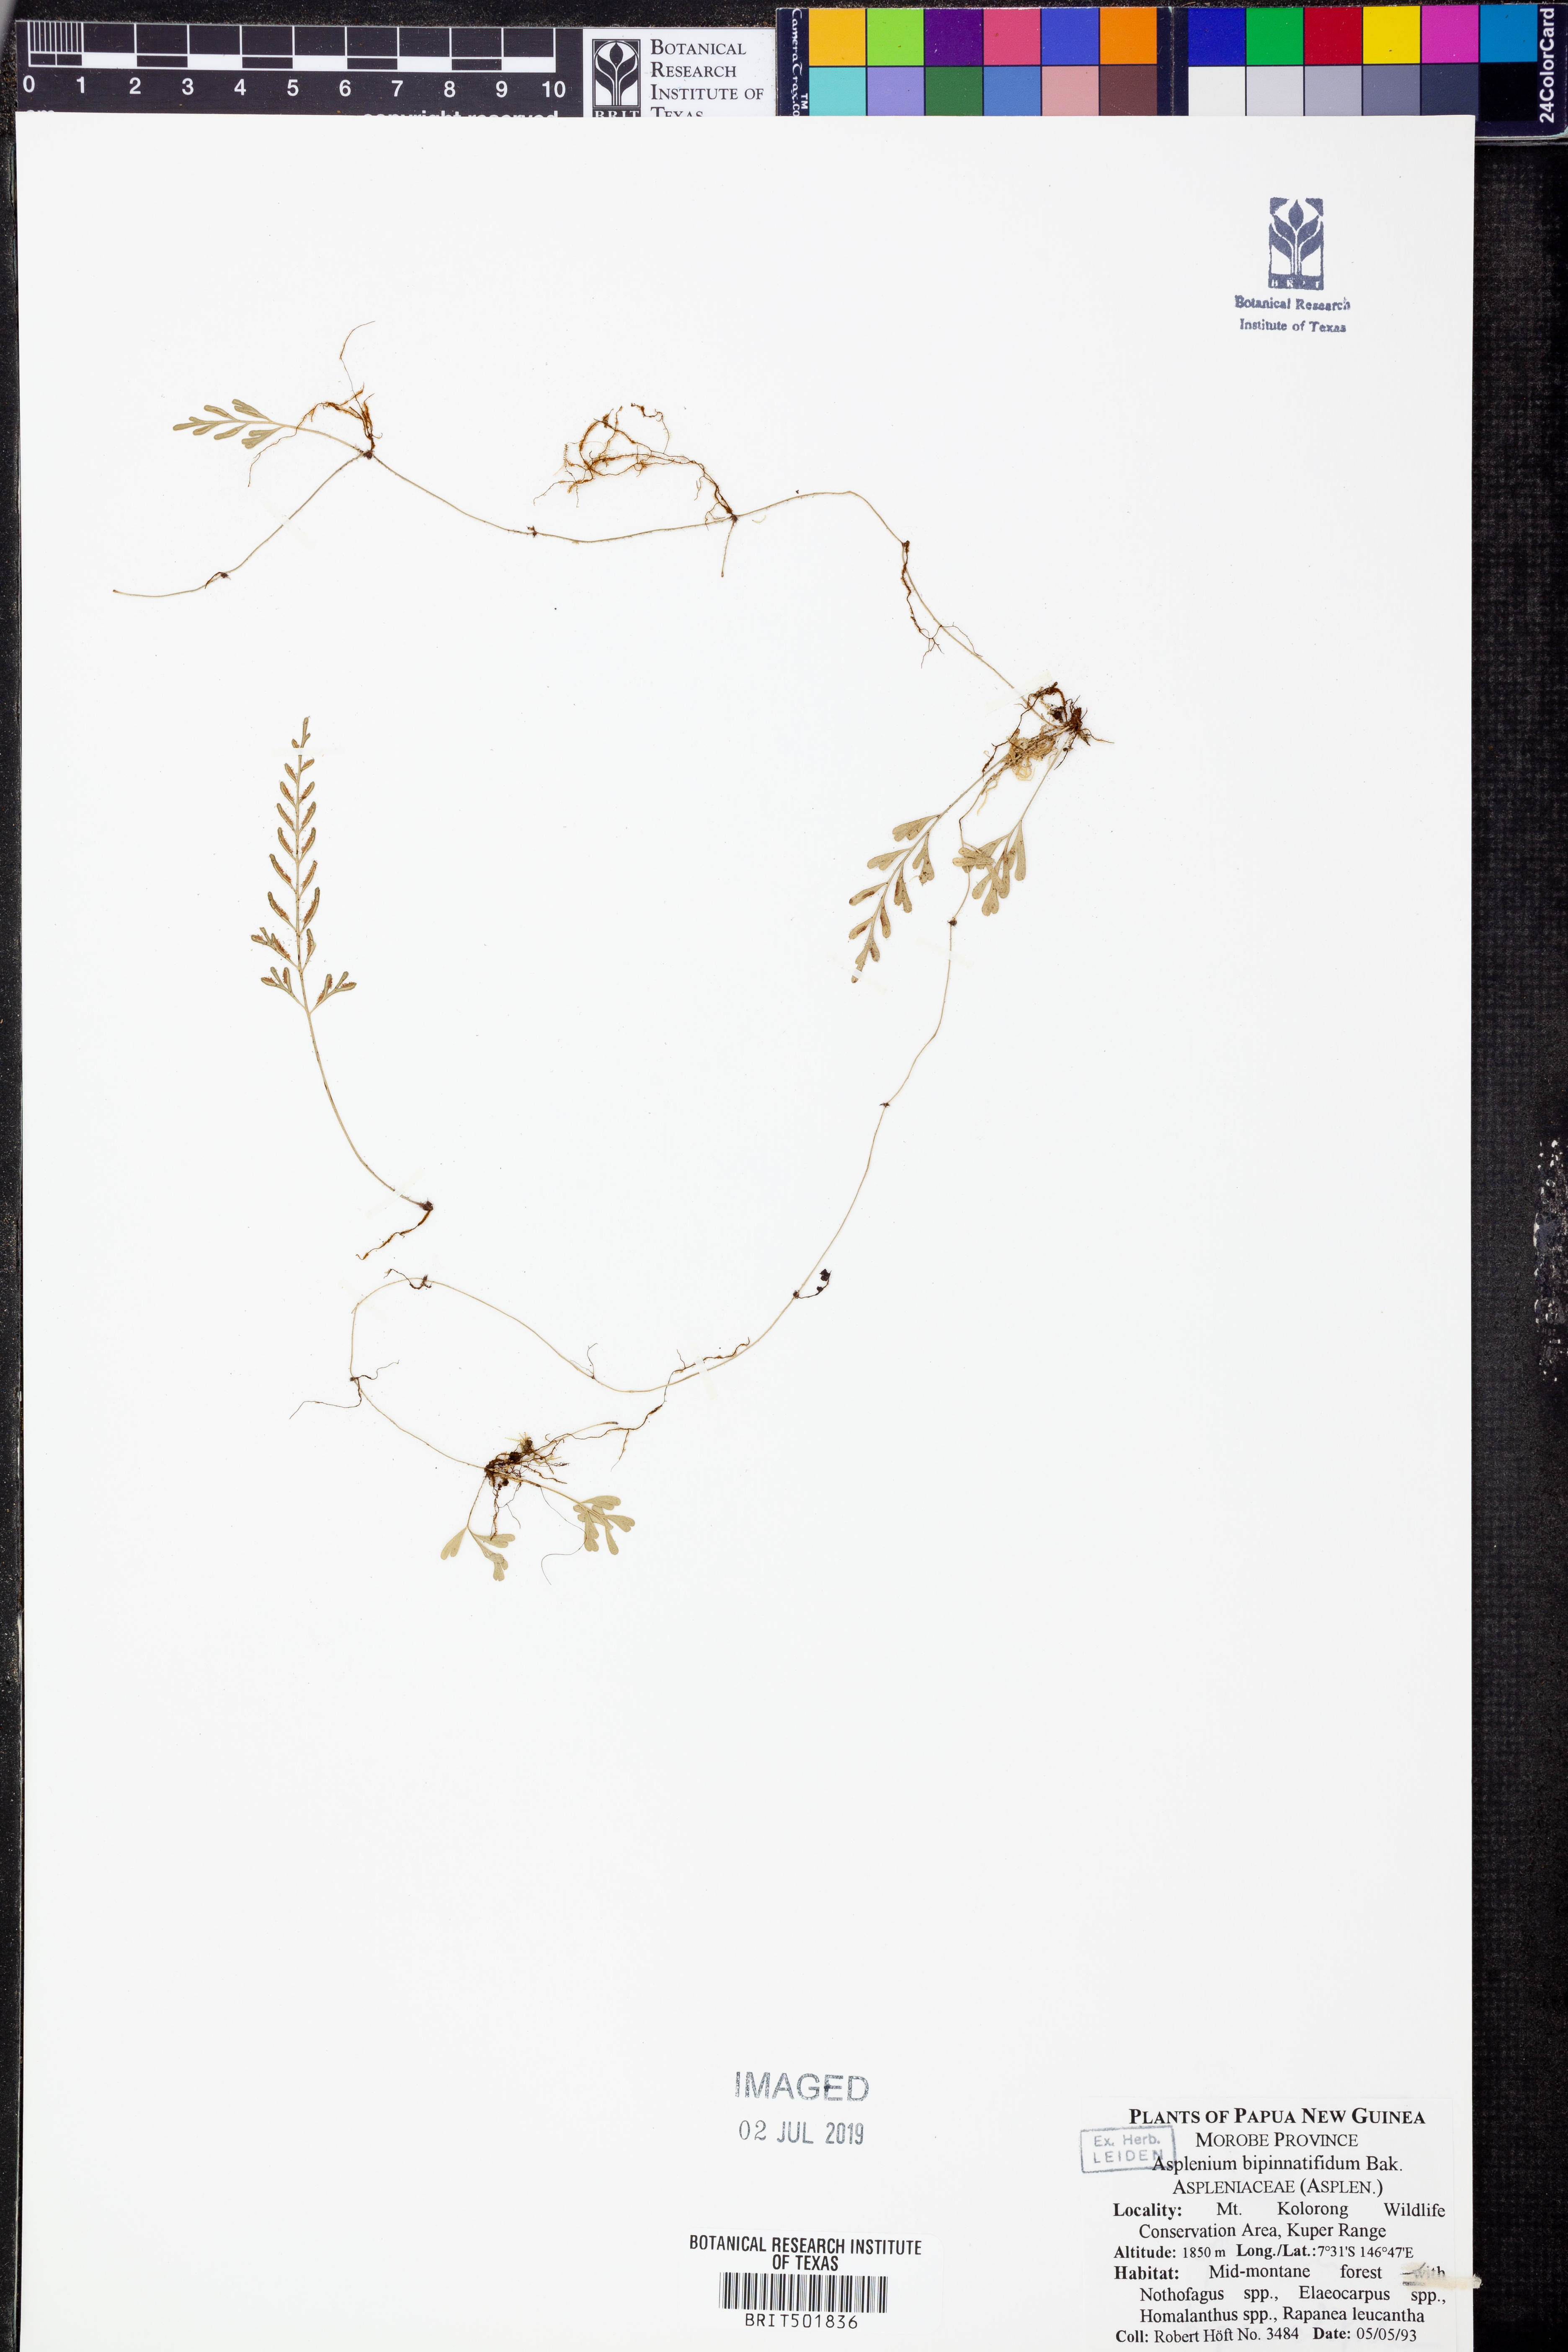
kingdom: Plantae
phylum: Tracheophyta
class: Polypodiopsida
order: Polypodiales
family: Aspleniaceae
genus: Asplenium
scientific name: Asplenium bipinnatifidum
